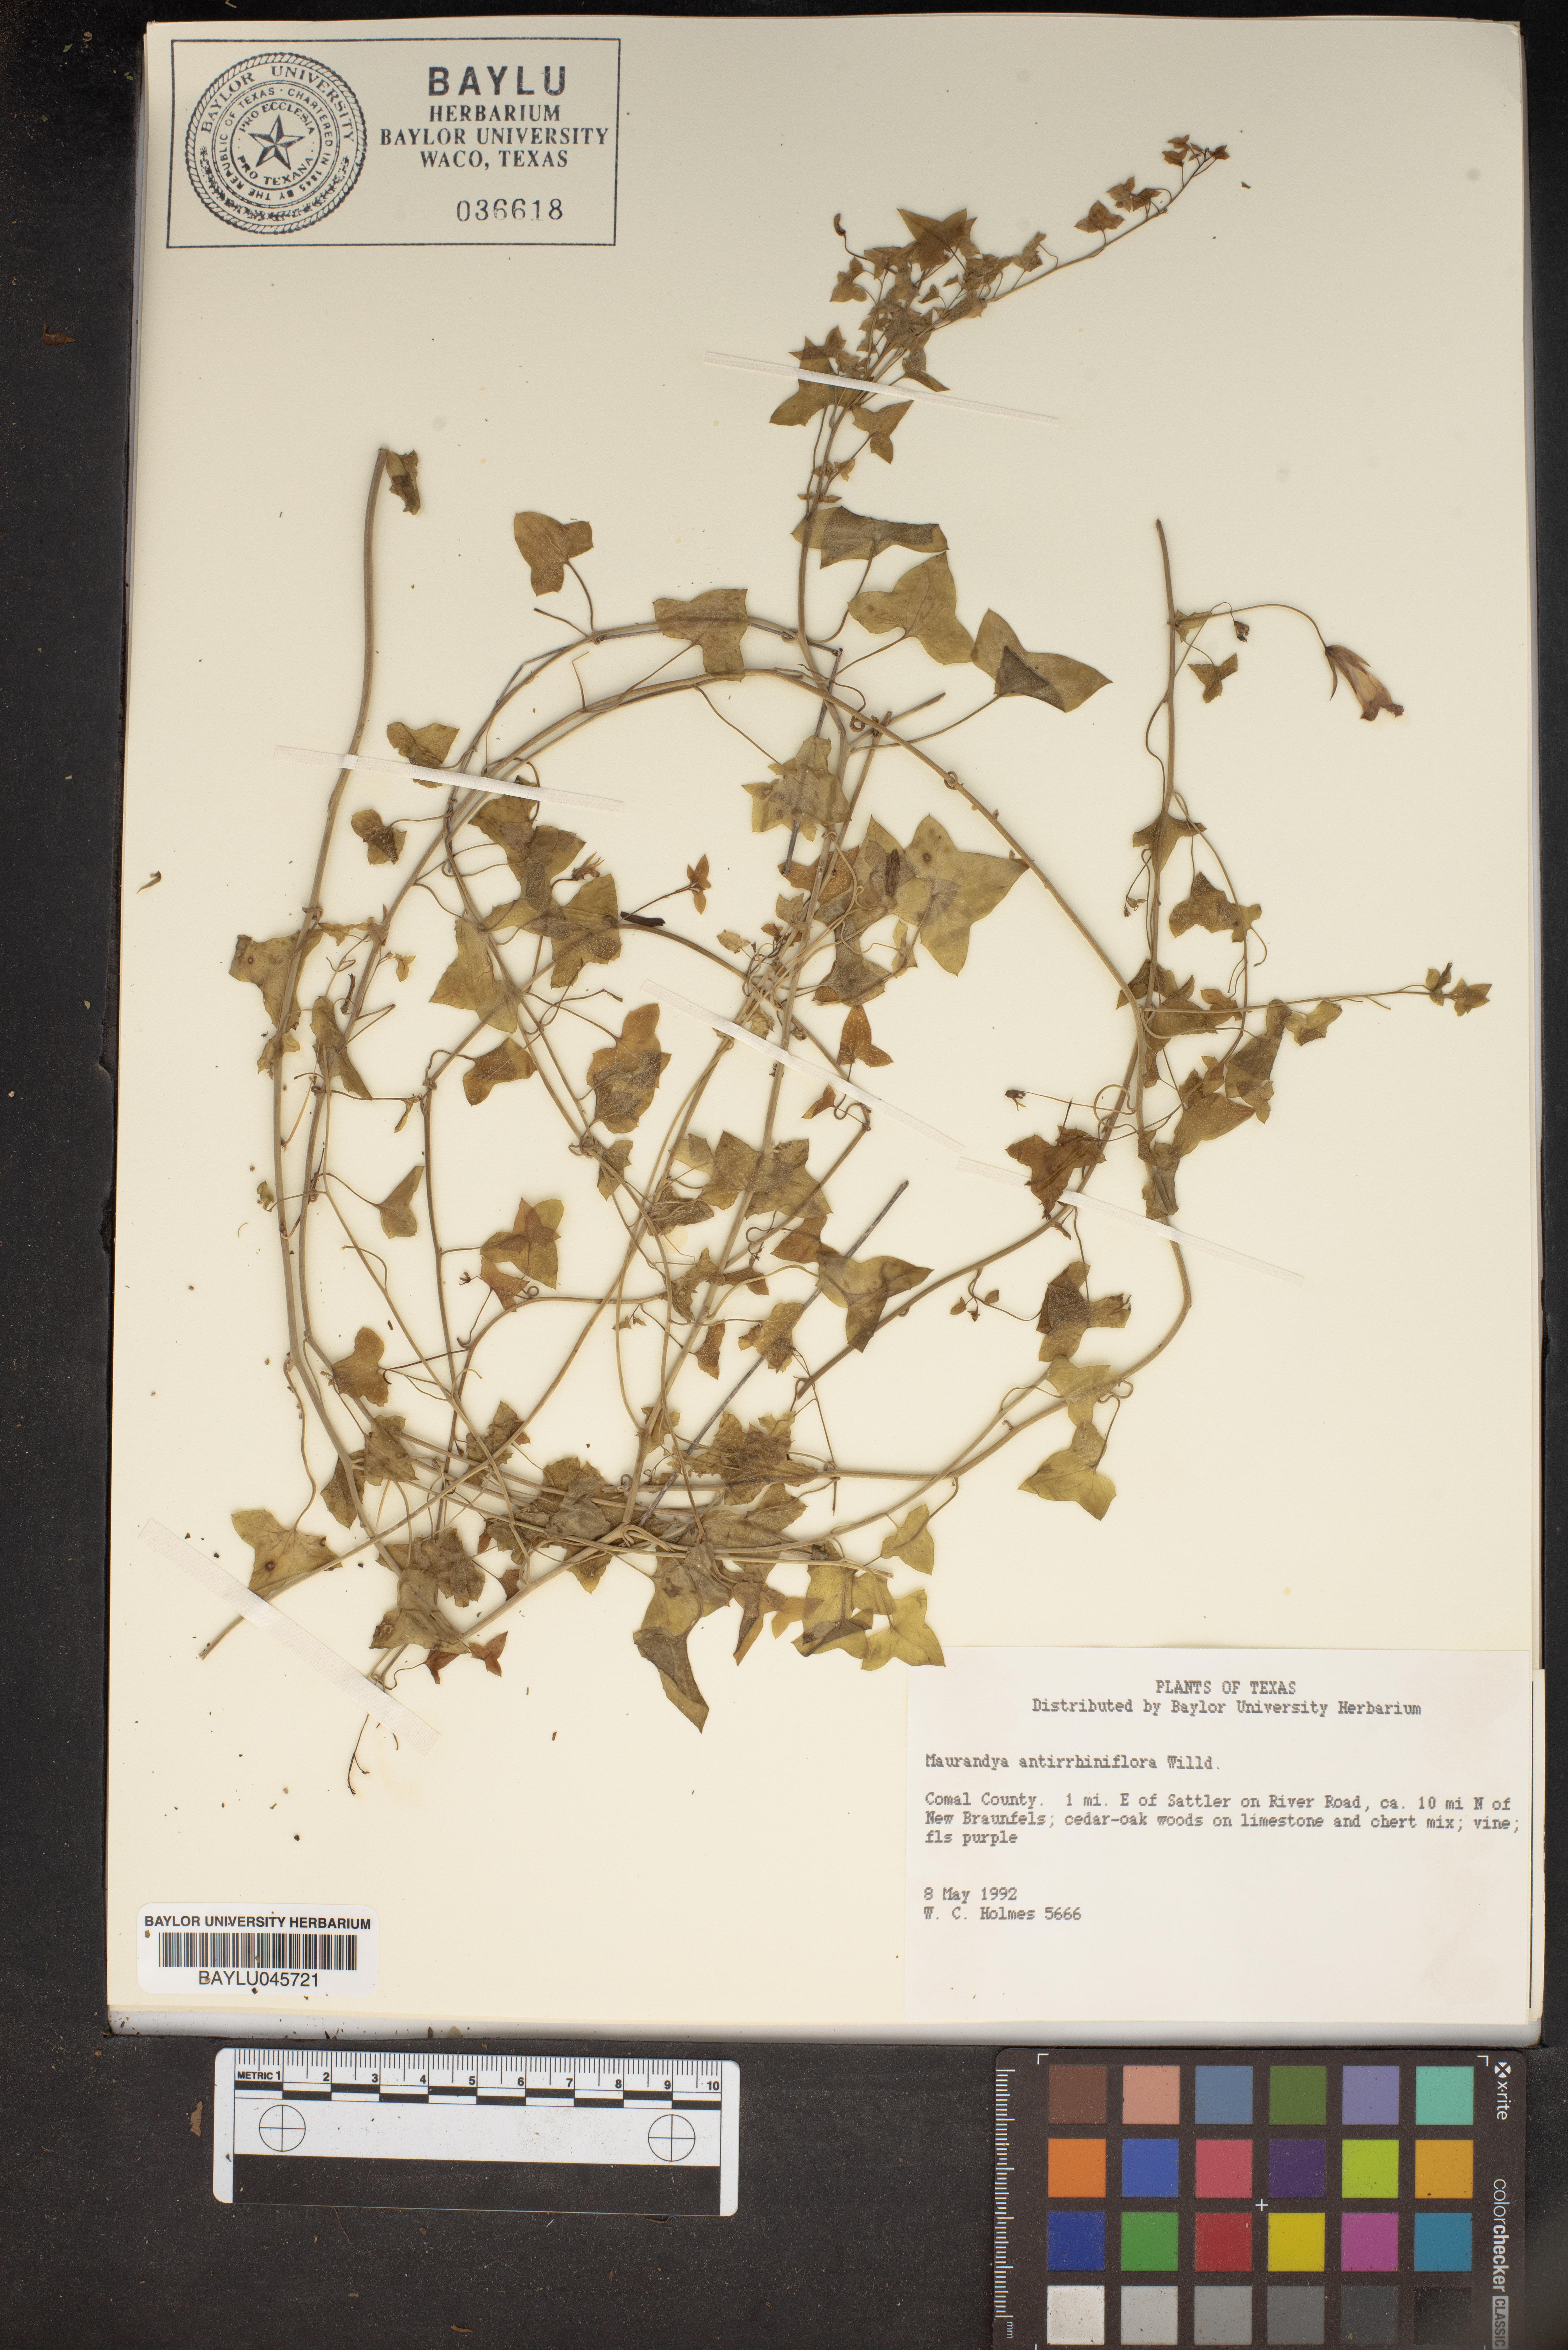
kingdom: Plantae
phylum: Tracheophyta
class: Magnoliopsida
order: Lamiales
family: Plantaginaceae
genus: Maurandella
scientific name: Maurandella antirrhiniflora
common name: Violet twining-snapdragon
